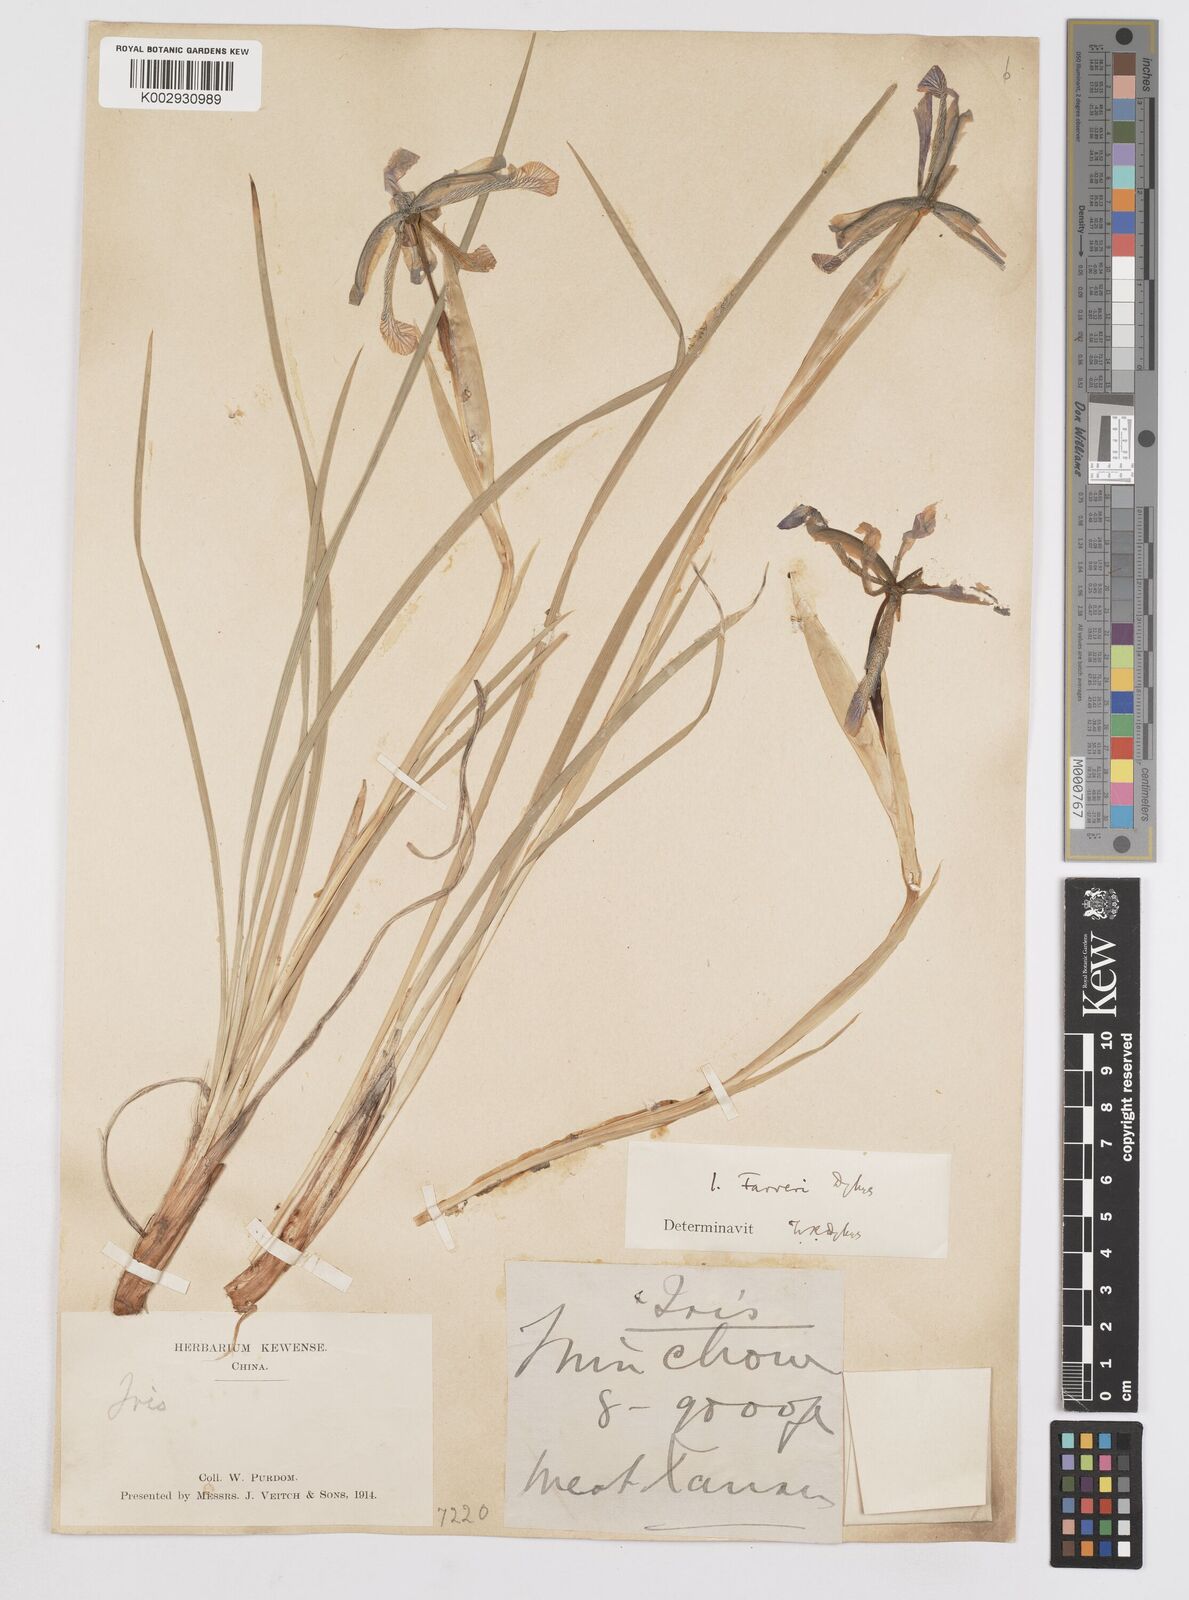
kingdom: Plantae
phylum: Tracheophyta
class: Liliopsida
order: Asparagales
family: Iridaceae
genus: Iris
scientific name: Iris farreri
